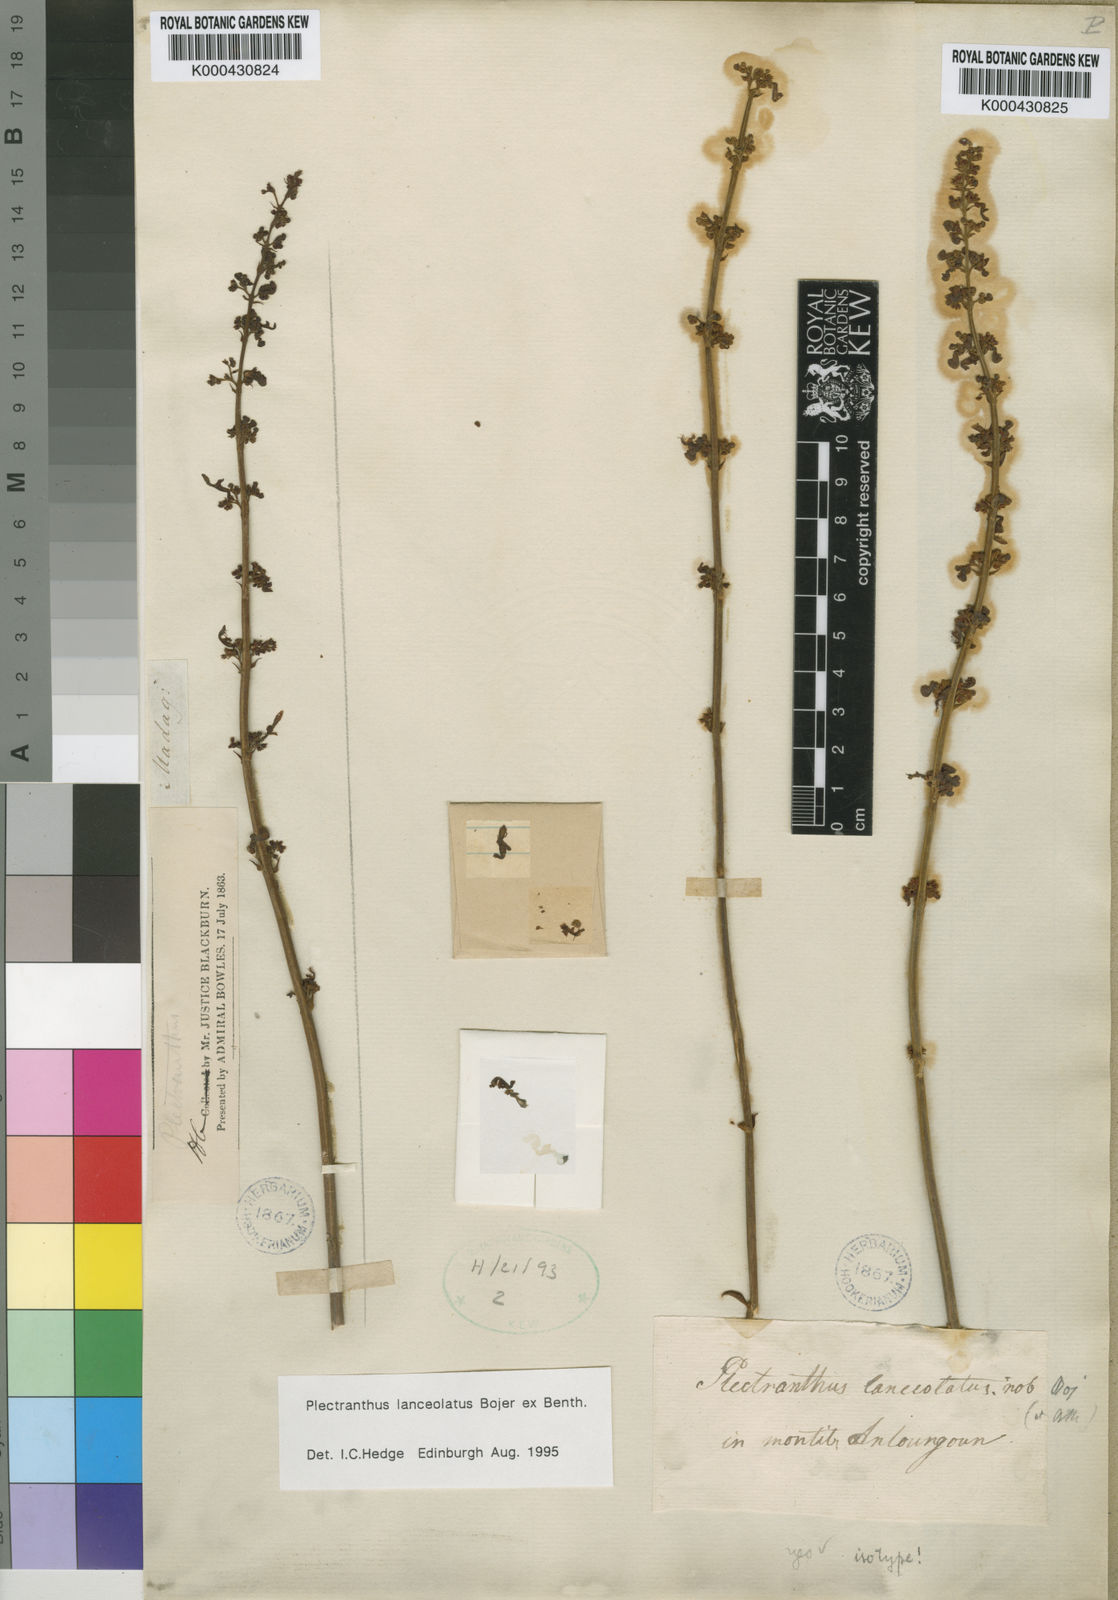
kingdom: Plantae
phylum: Tracheophyta
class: Magnoliopsida
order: Lamiales
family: Lamiaceae
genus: Coleus
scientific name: Coleus lanceolatus
